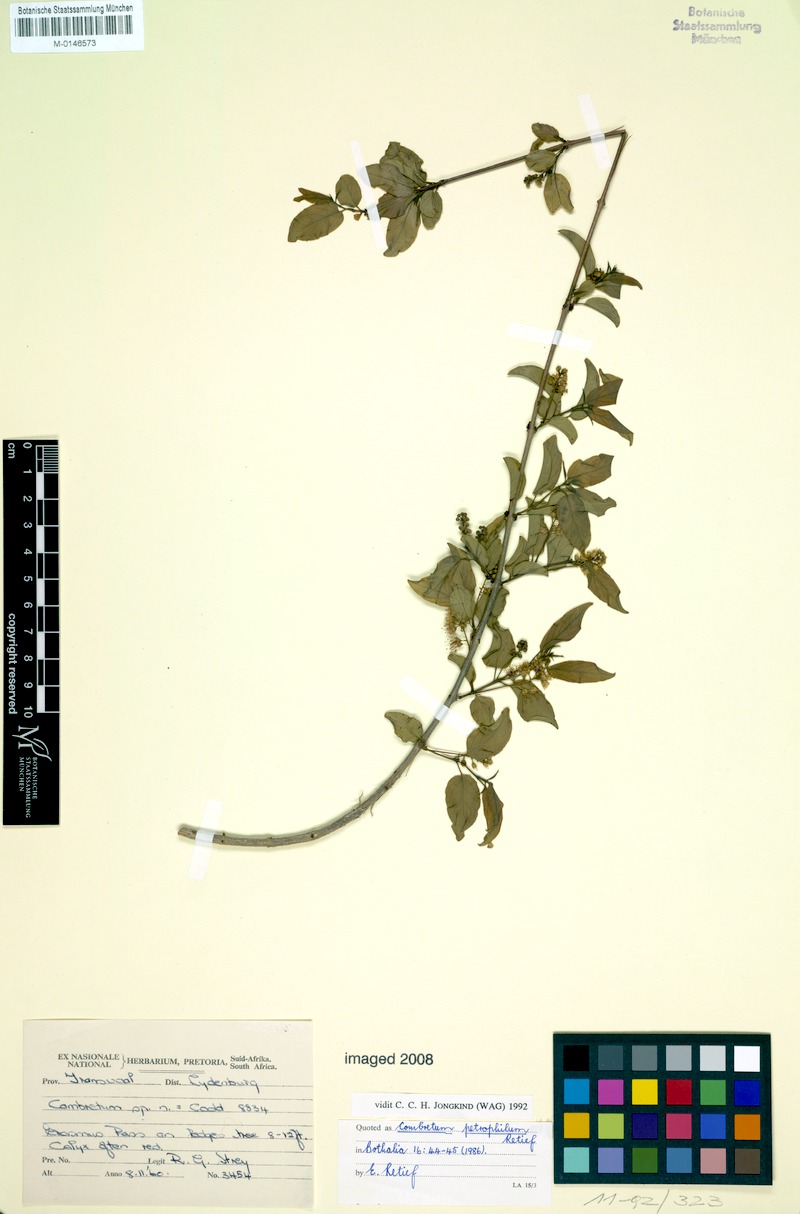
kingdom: Plantae
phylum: Tracheophyta
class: Magnoliopsida
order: Myrtales
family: Combretaceae
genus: Combretum
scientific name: Combretum petrophilum
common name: Olifants river bushwillow
